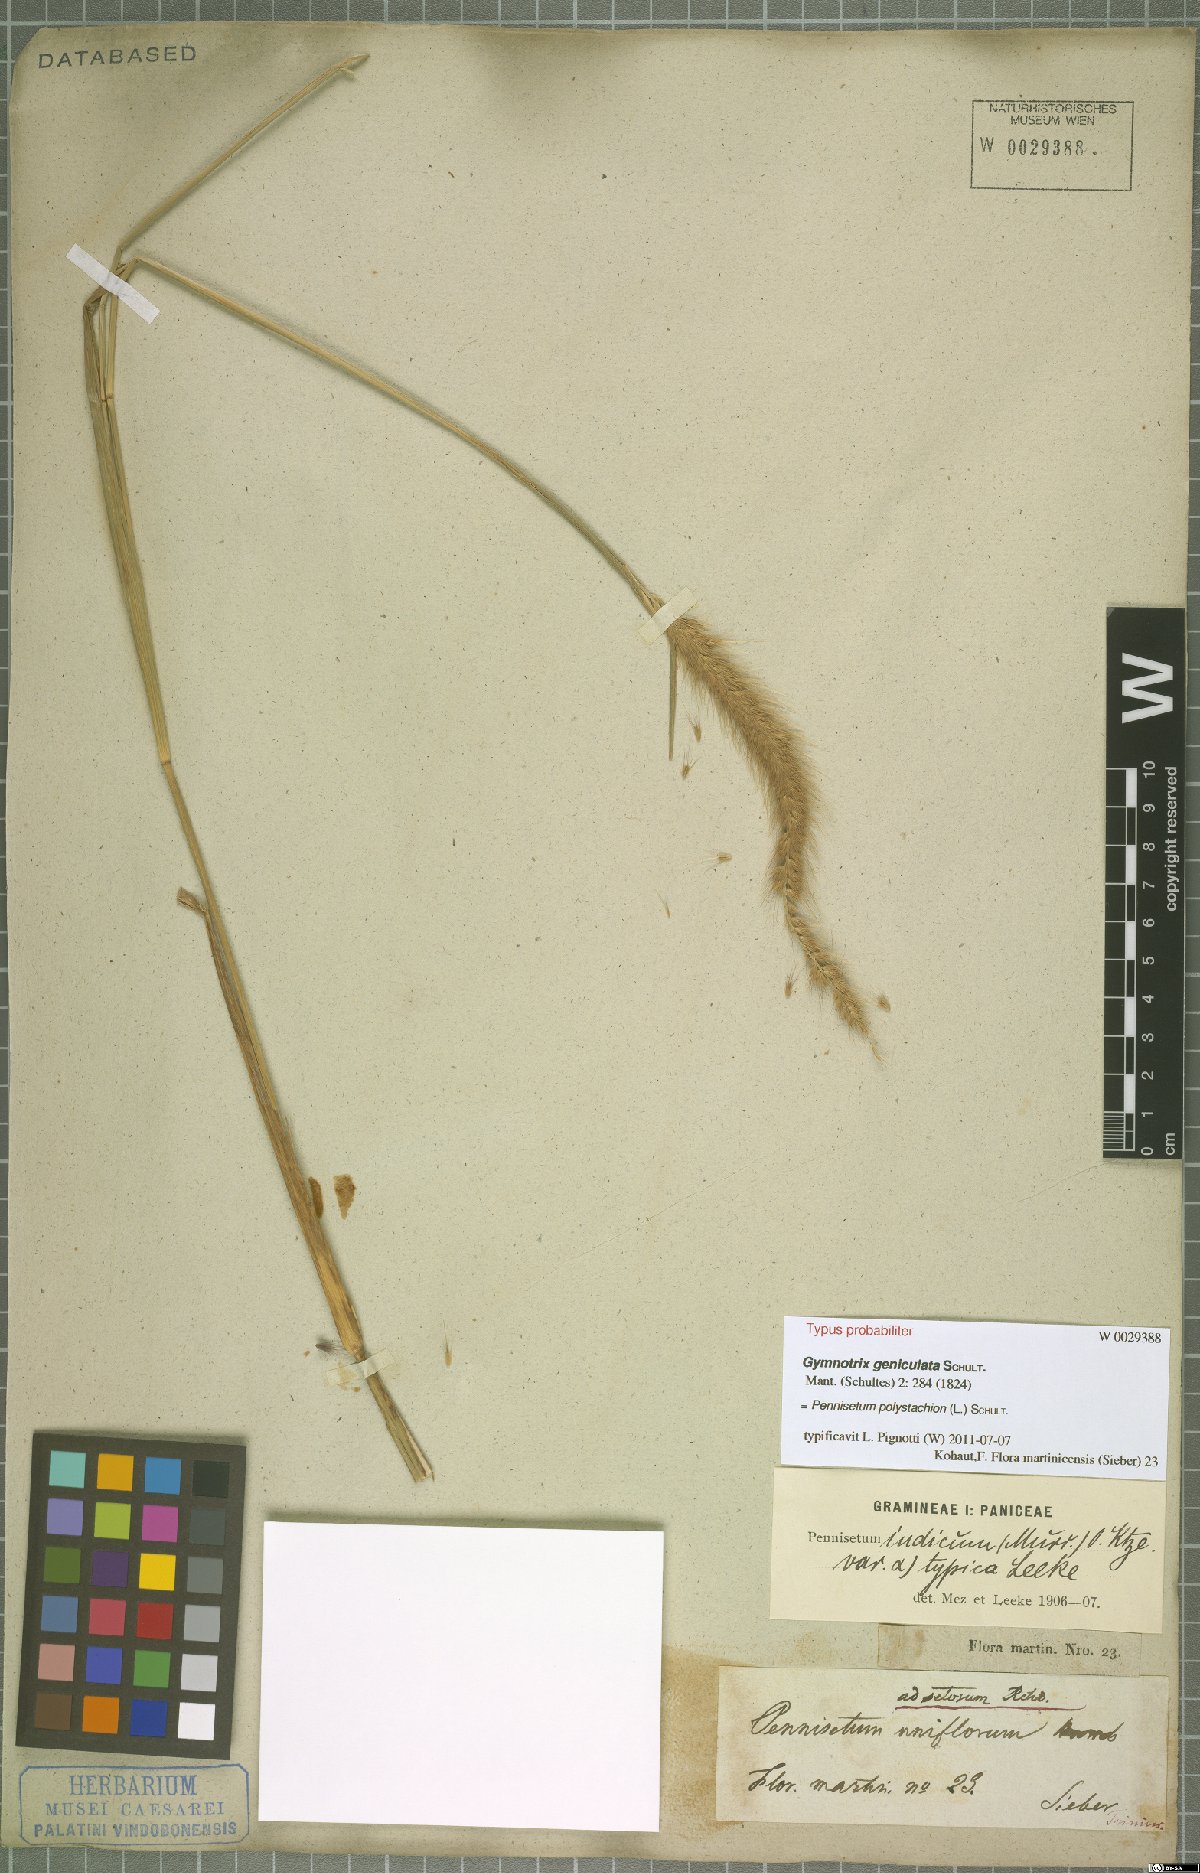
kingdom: Plantae
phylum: Tracheophyta
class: Liliopsida
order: Poales
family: Poaceae
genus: Setaria
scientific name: Setaria parviflora
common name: Knotroot bristle-grass
